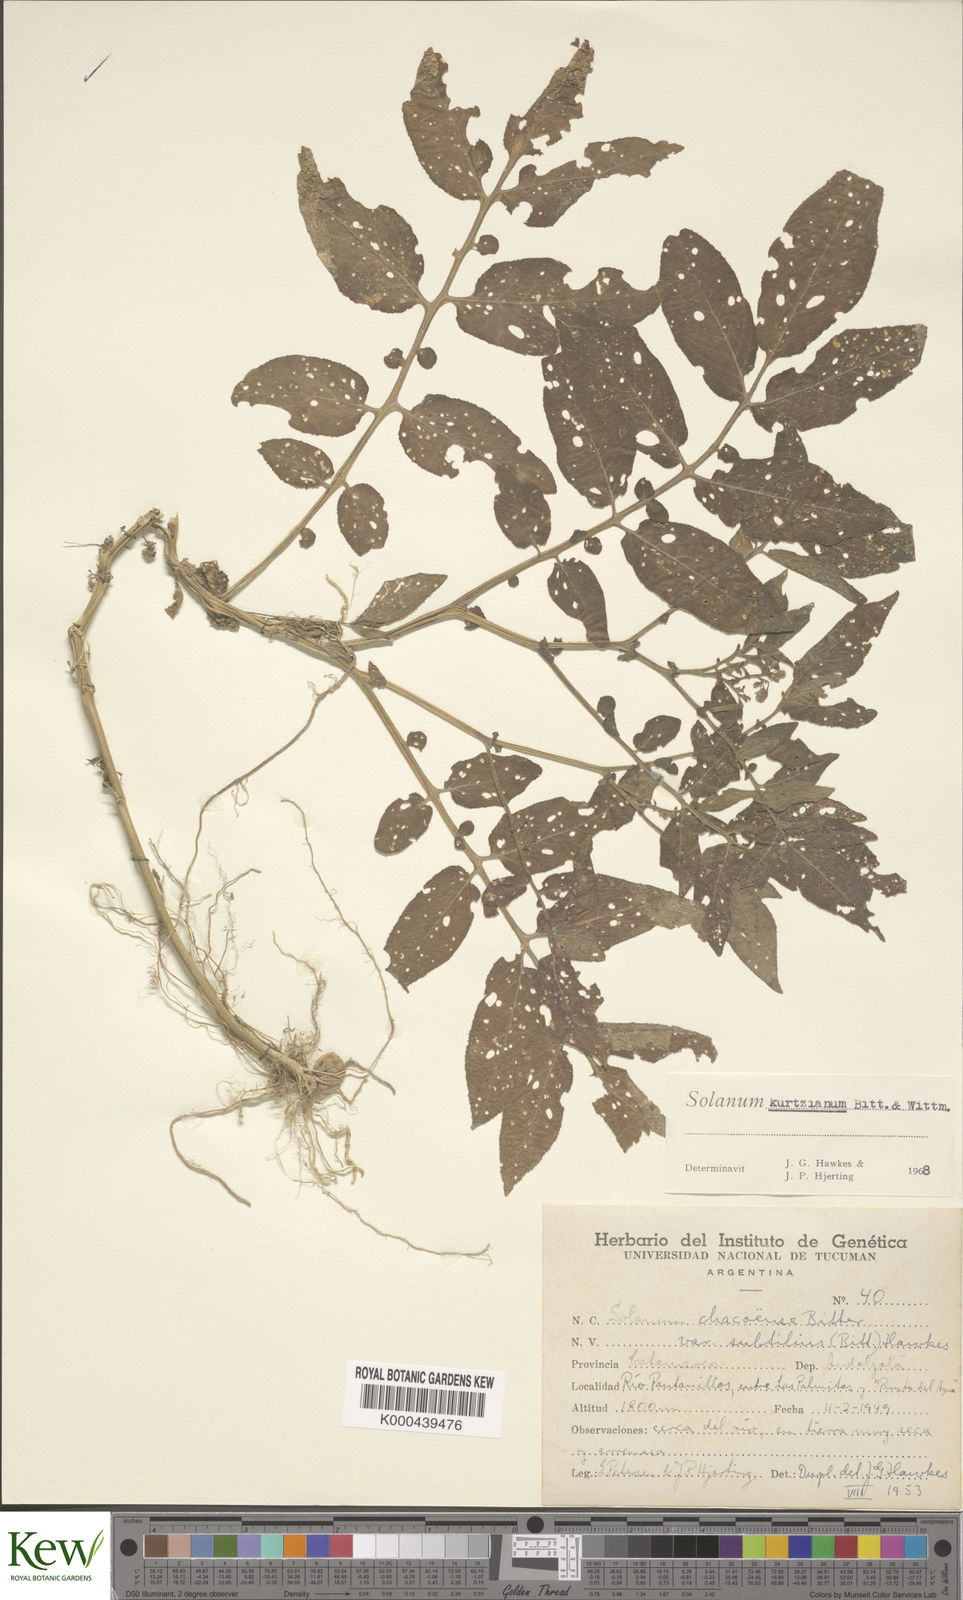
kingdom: Plantae
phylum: Tracheophyta
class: Magnoliopsida
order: Solanales
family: Solanaceae
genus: Solanum
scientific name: Solanum kurtzianum
